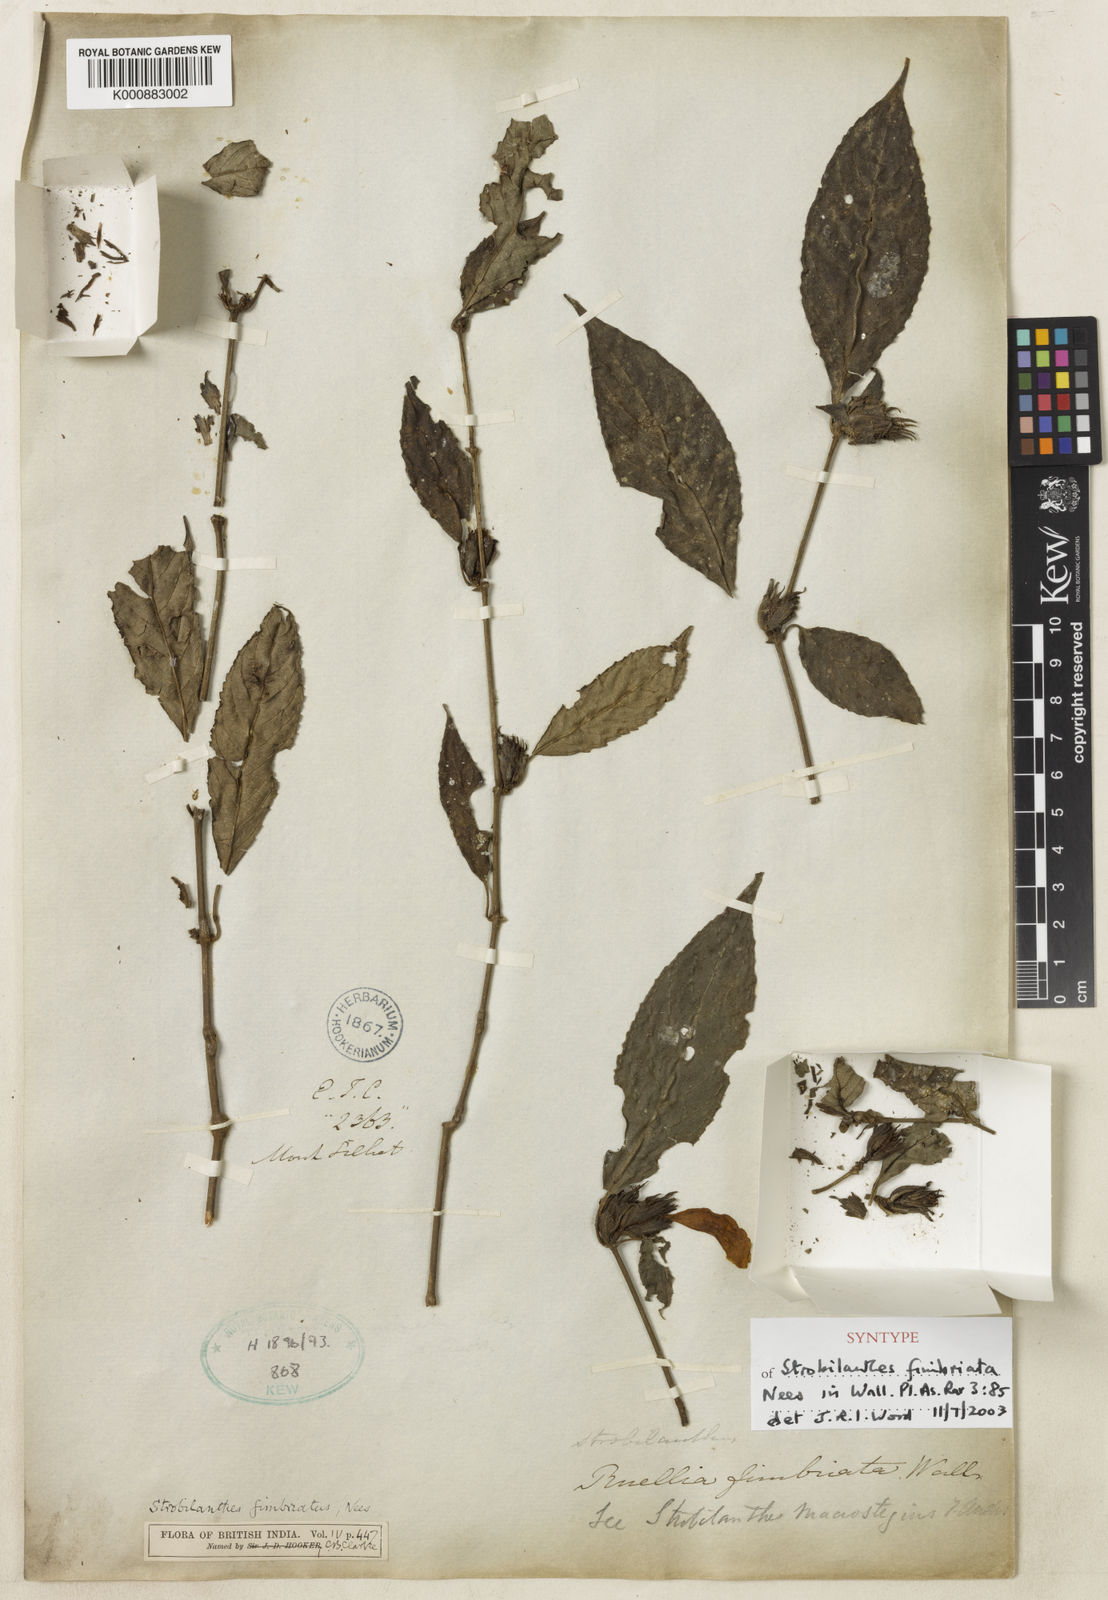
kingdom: Plantae
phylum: Tracheophyta
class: Magnoliopsida
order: Lamiales
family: Acanthaceae
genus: Strobilanthes
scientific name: Strobilanthes fimbriata
